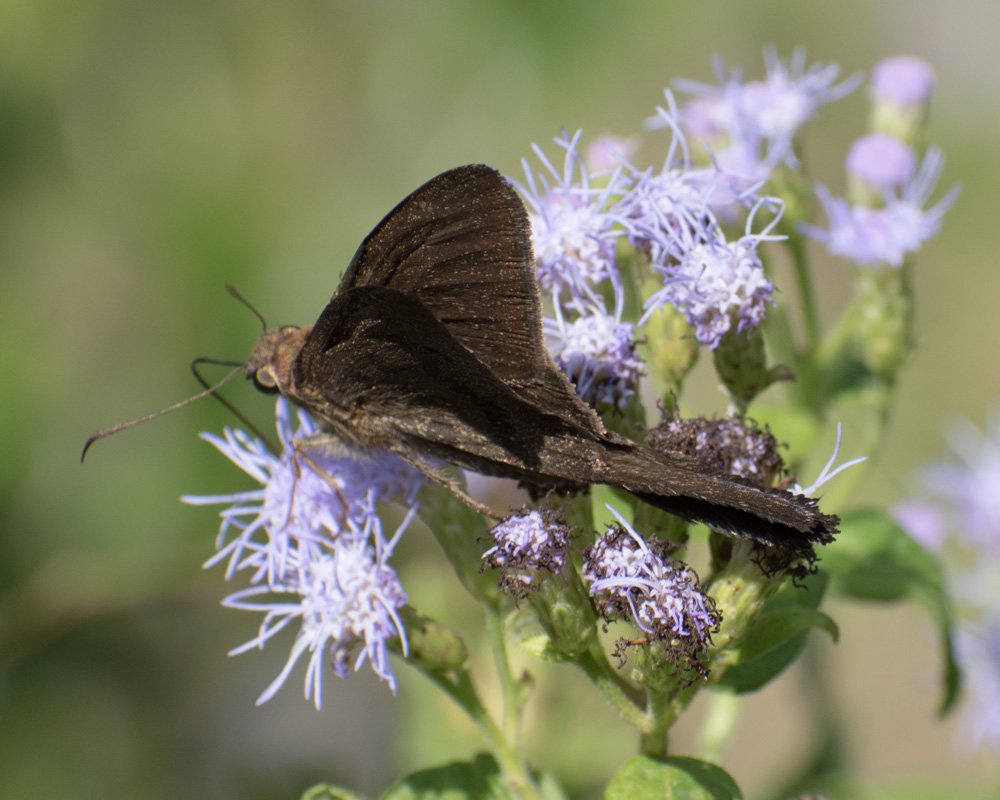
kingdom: Animalia
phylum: Arthropoda
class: Insecta
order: Lepidoptera
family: Hesperiidae
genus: Urbanus
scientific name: Urbanus procne
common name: Brown Longtail
